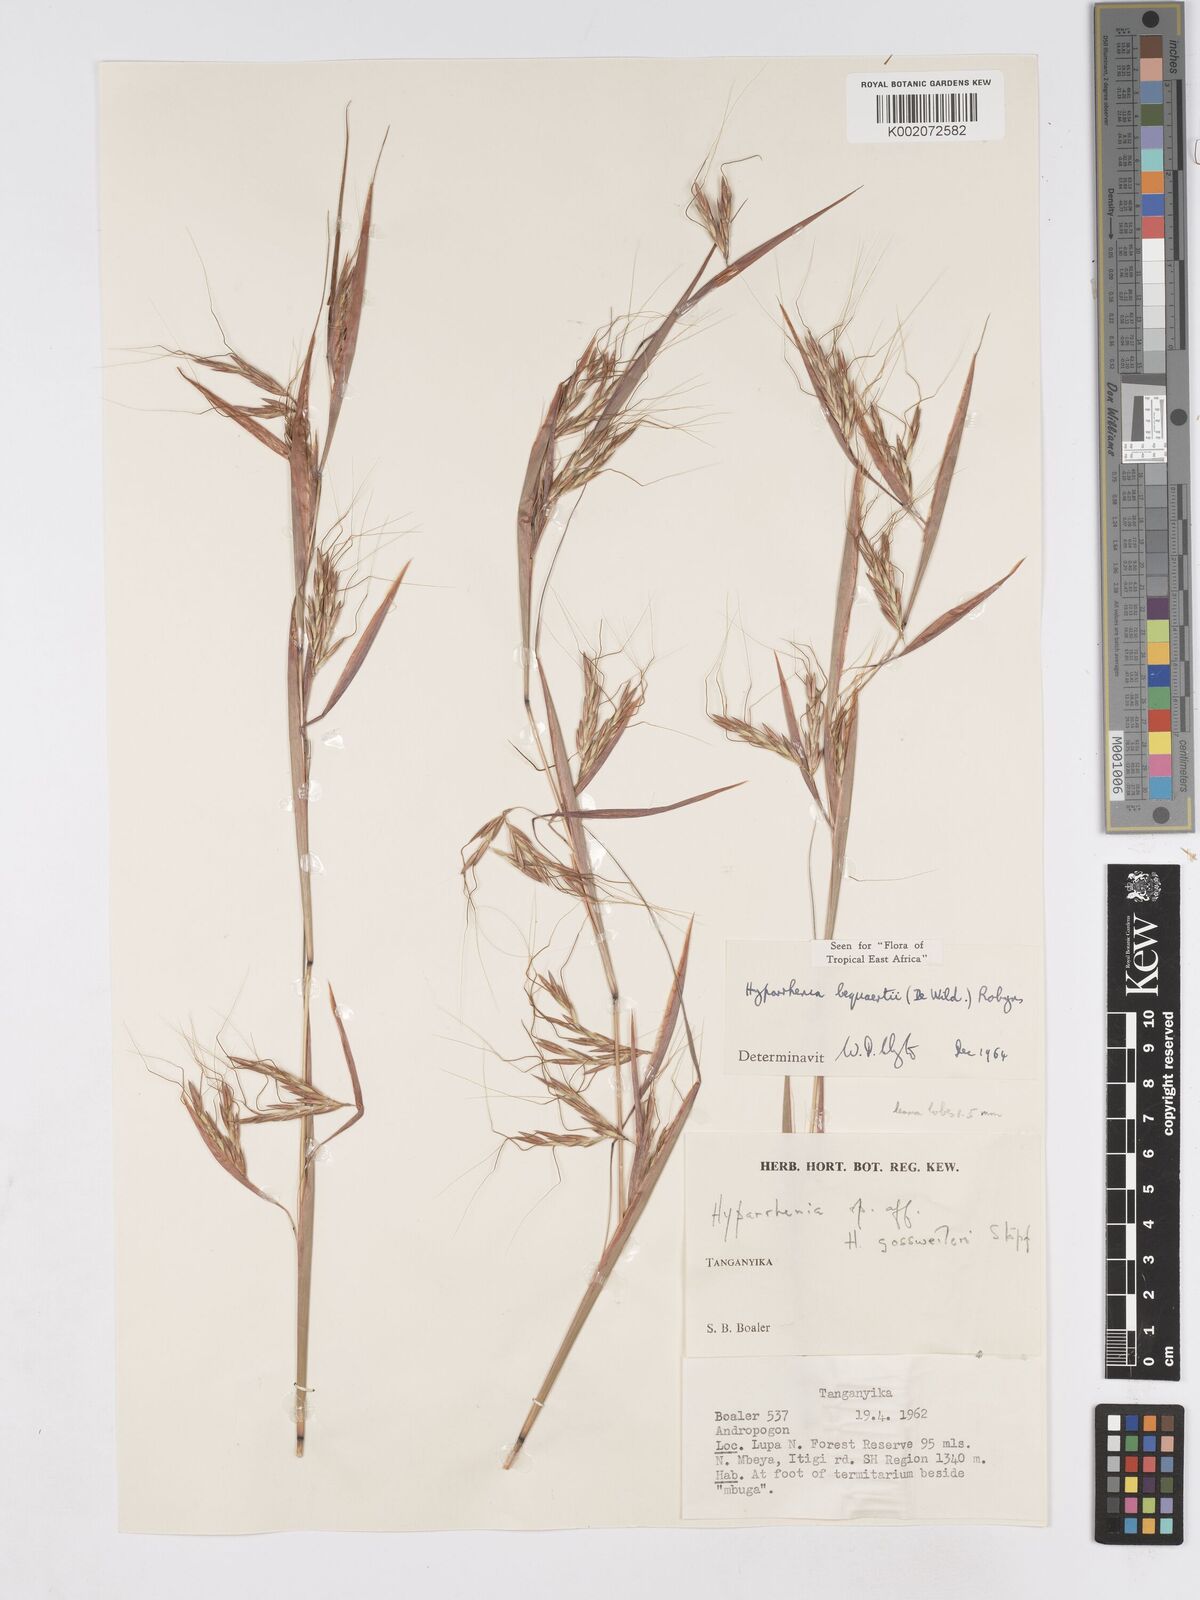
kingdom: Plantae
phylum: Tracheophyta
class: Liliopsida
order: Poales
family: Poaceae
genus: Hyparrhenia
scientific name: Hyparrhenia gossweileri
